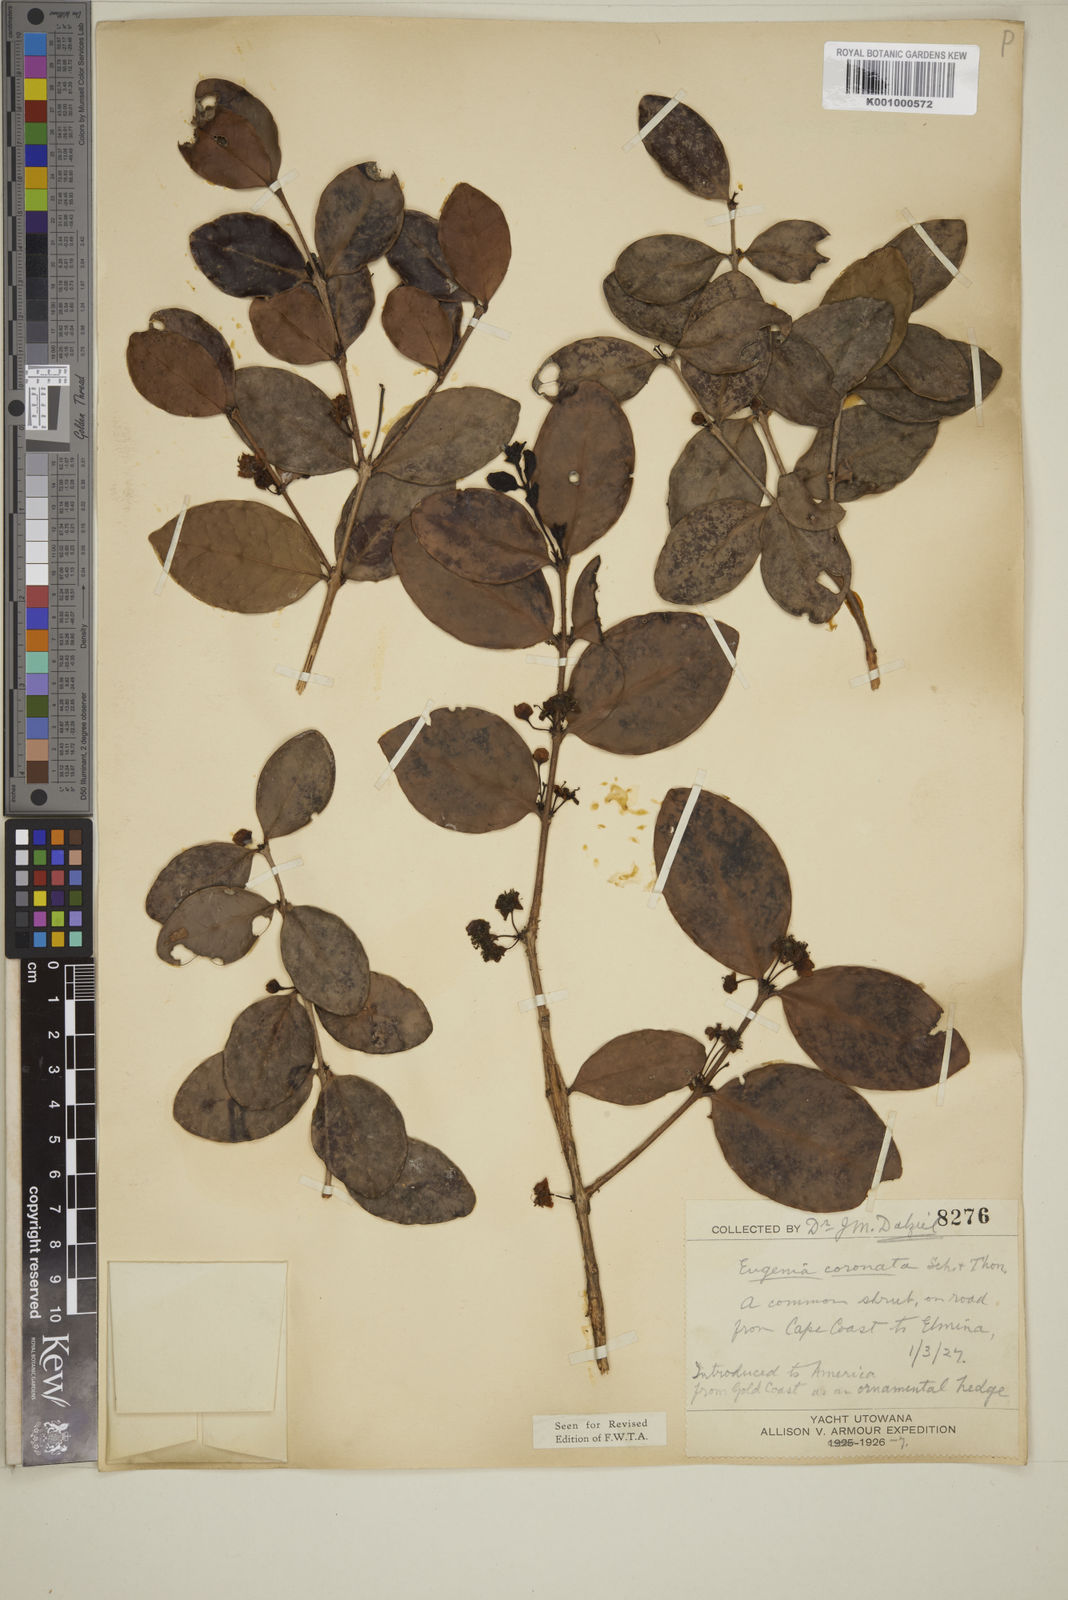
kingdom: Plantae
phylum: Tracheophyta
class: Magnoliopsida
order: Myrtales
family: Myrtaceae
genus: Eugenia
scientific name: Eugenia coronata
